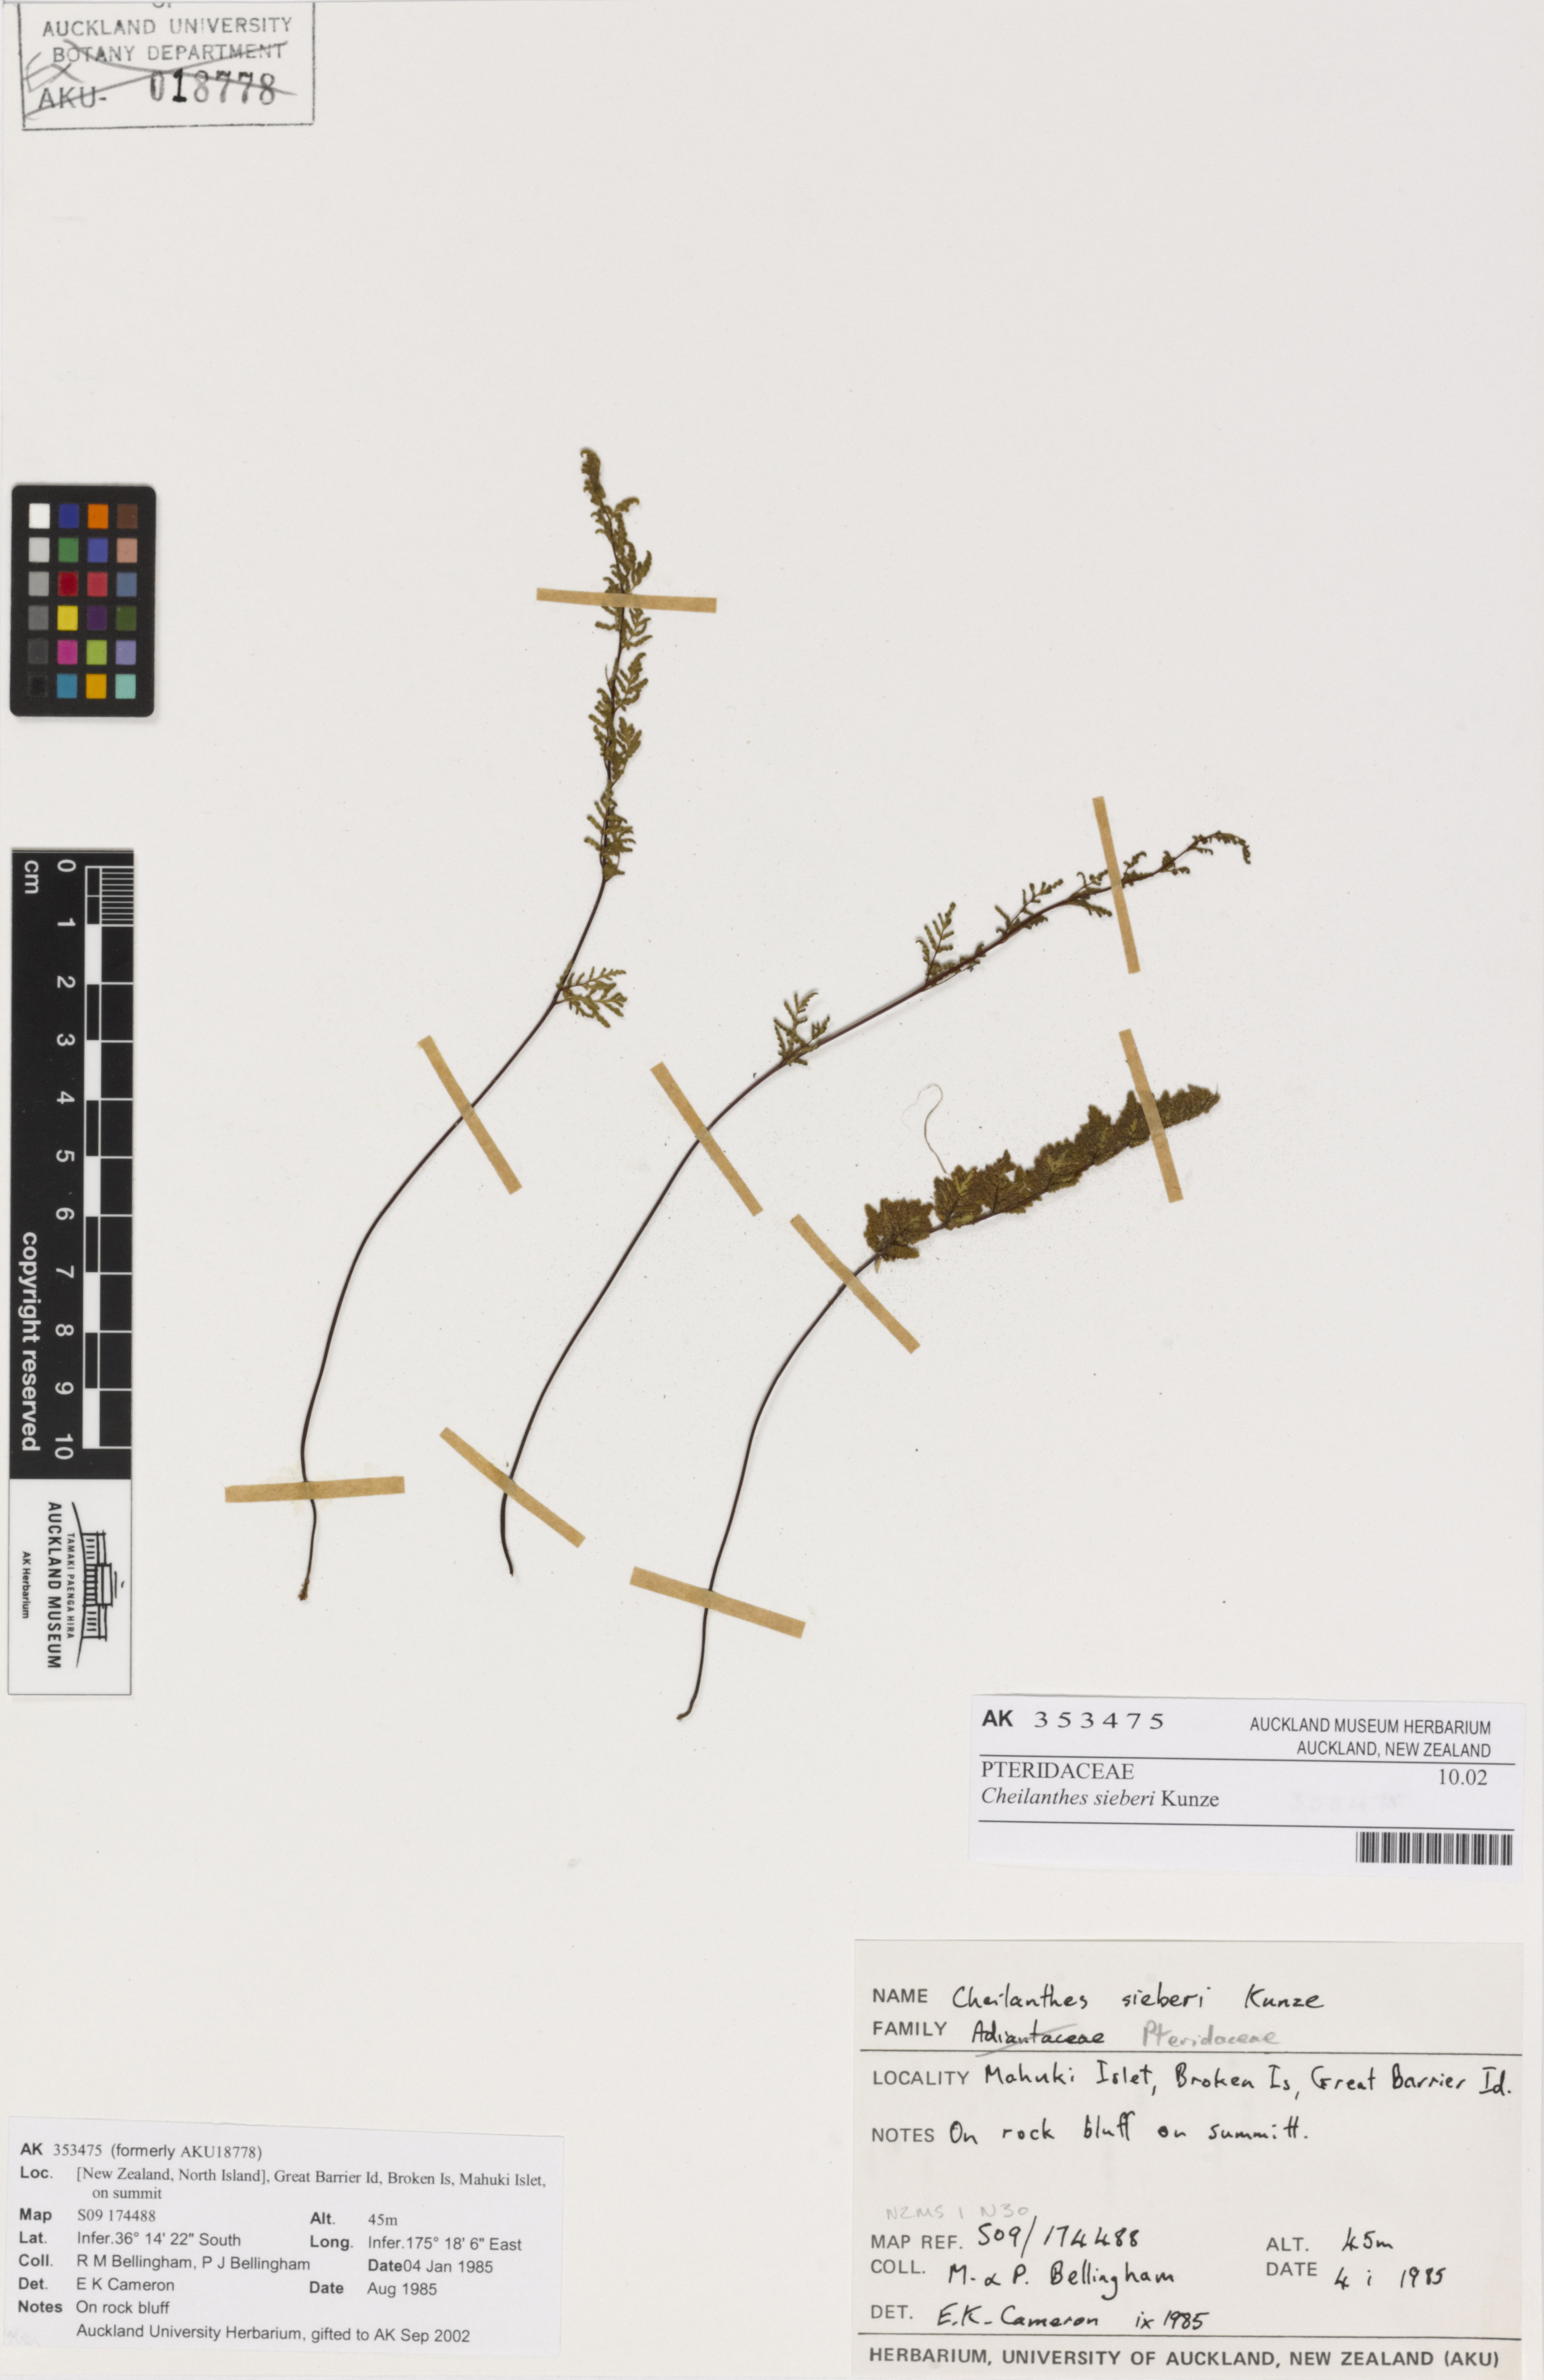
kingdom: Plantae
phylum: Tracheophyta
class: Polypodiopsida
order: Polypodiales
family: Pteridaceae
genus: Cheilanthes
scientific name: Cheilanthes sieberi
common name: Mulga fern
